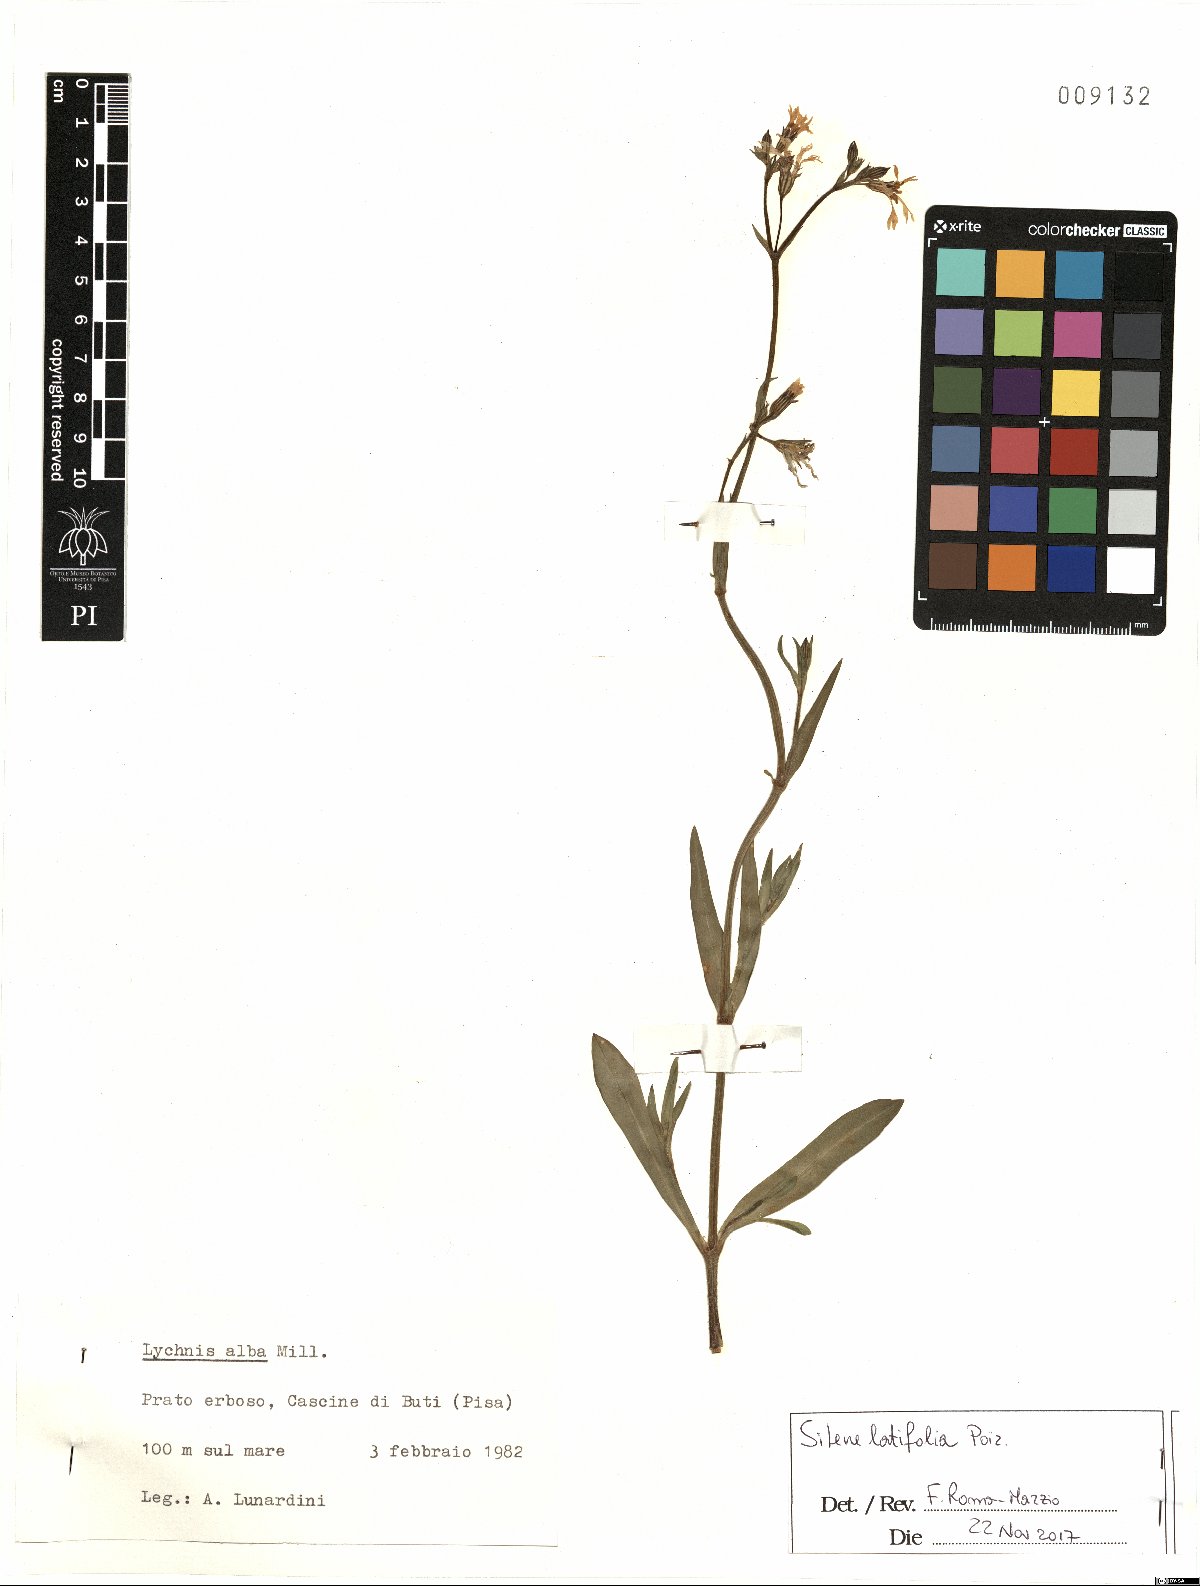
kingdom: Plantae
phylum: Tracheophyta
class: Magnoliopsida
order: Caryophyllales
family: Caryophyllaceae
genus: Silene
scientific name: Silene latifolia
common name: White campion
